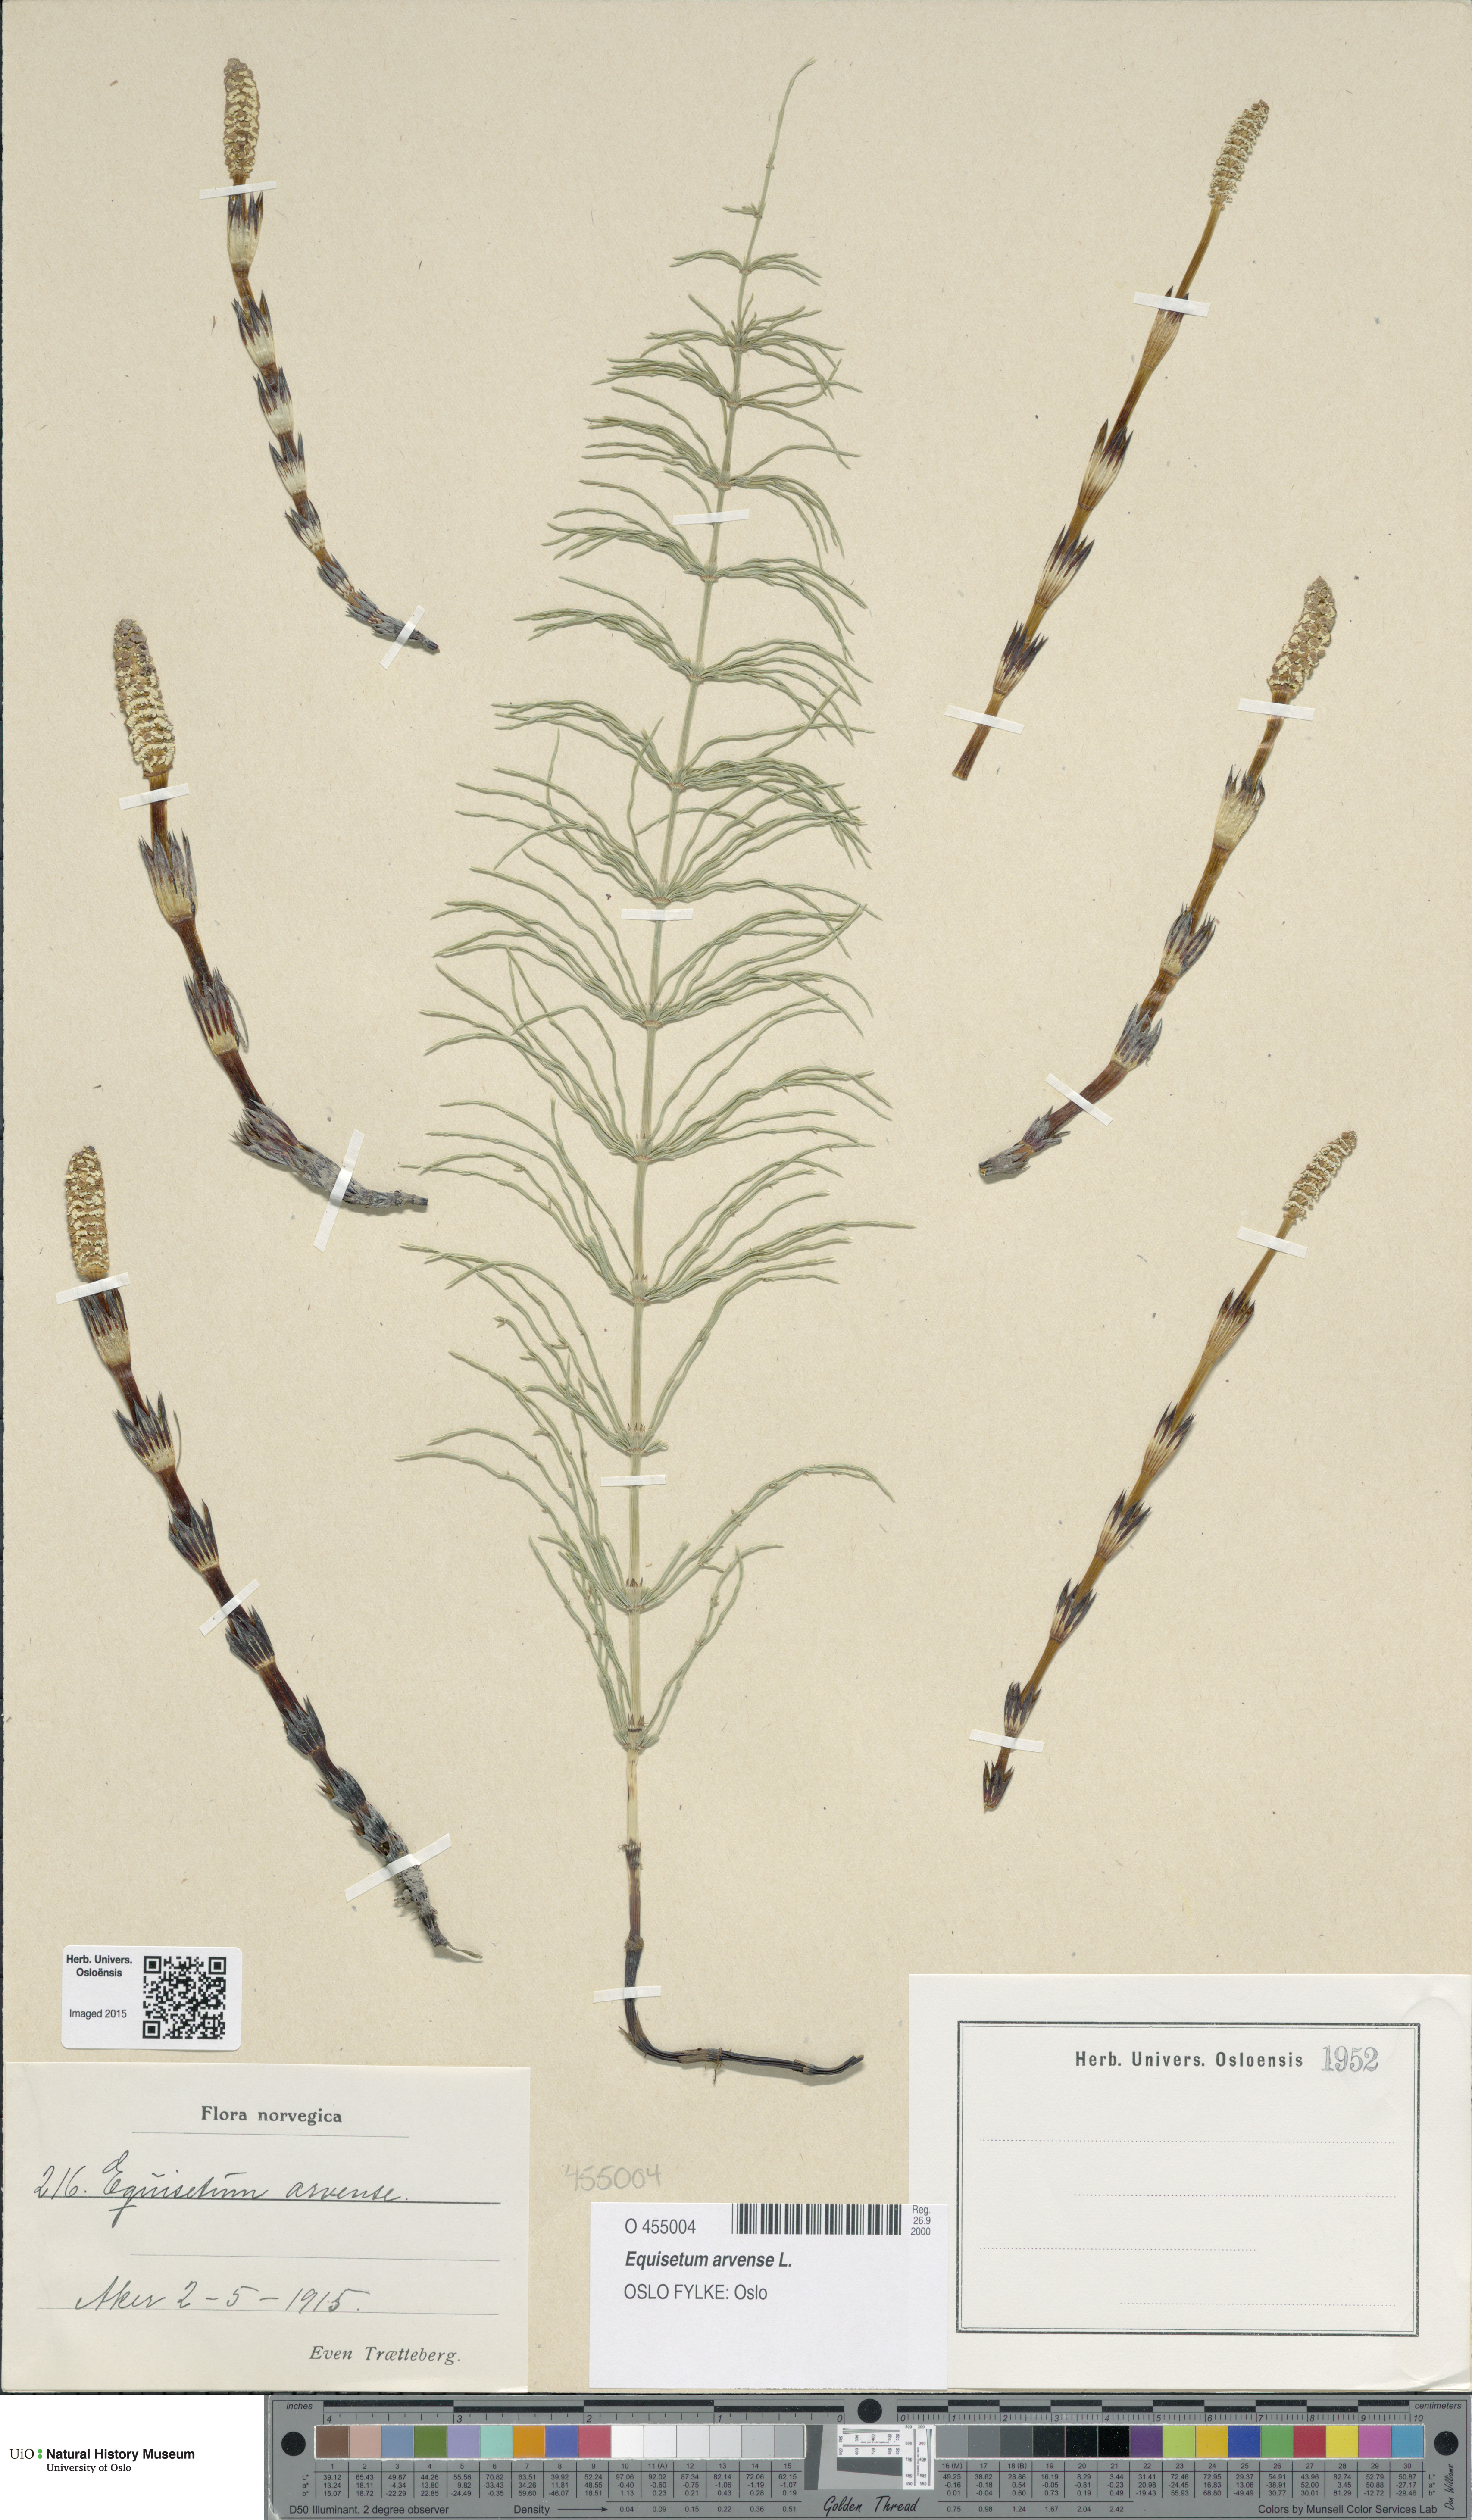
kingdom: Plantae
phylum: Tracheophyta
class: Polypodiopsida
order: Equisetales
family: Equisetaceae
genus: Equisetum
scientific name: Equisetum arvense
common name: Field horsetail
